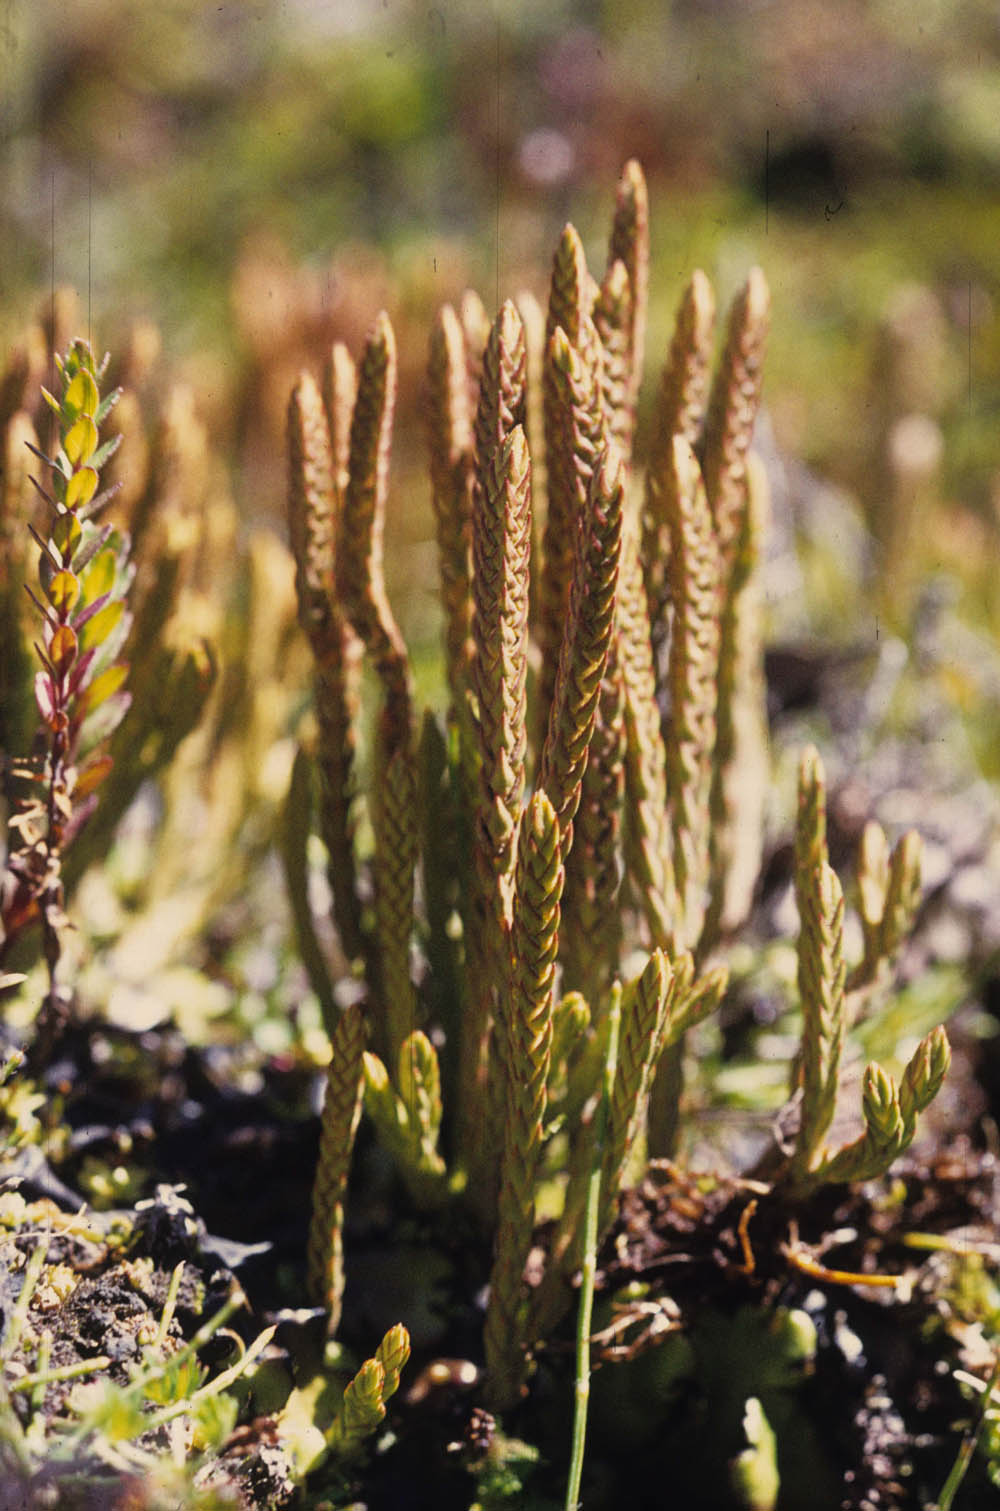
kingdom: Plantae
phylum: Tracheophyta
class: Lycopodiopsida
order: Lycopodiales
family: Lycopodiaceae
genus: Phlegmariurus
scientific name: Phlegmariurus attenuatus
